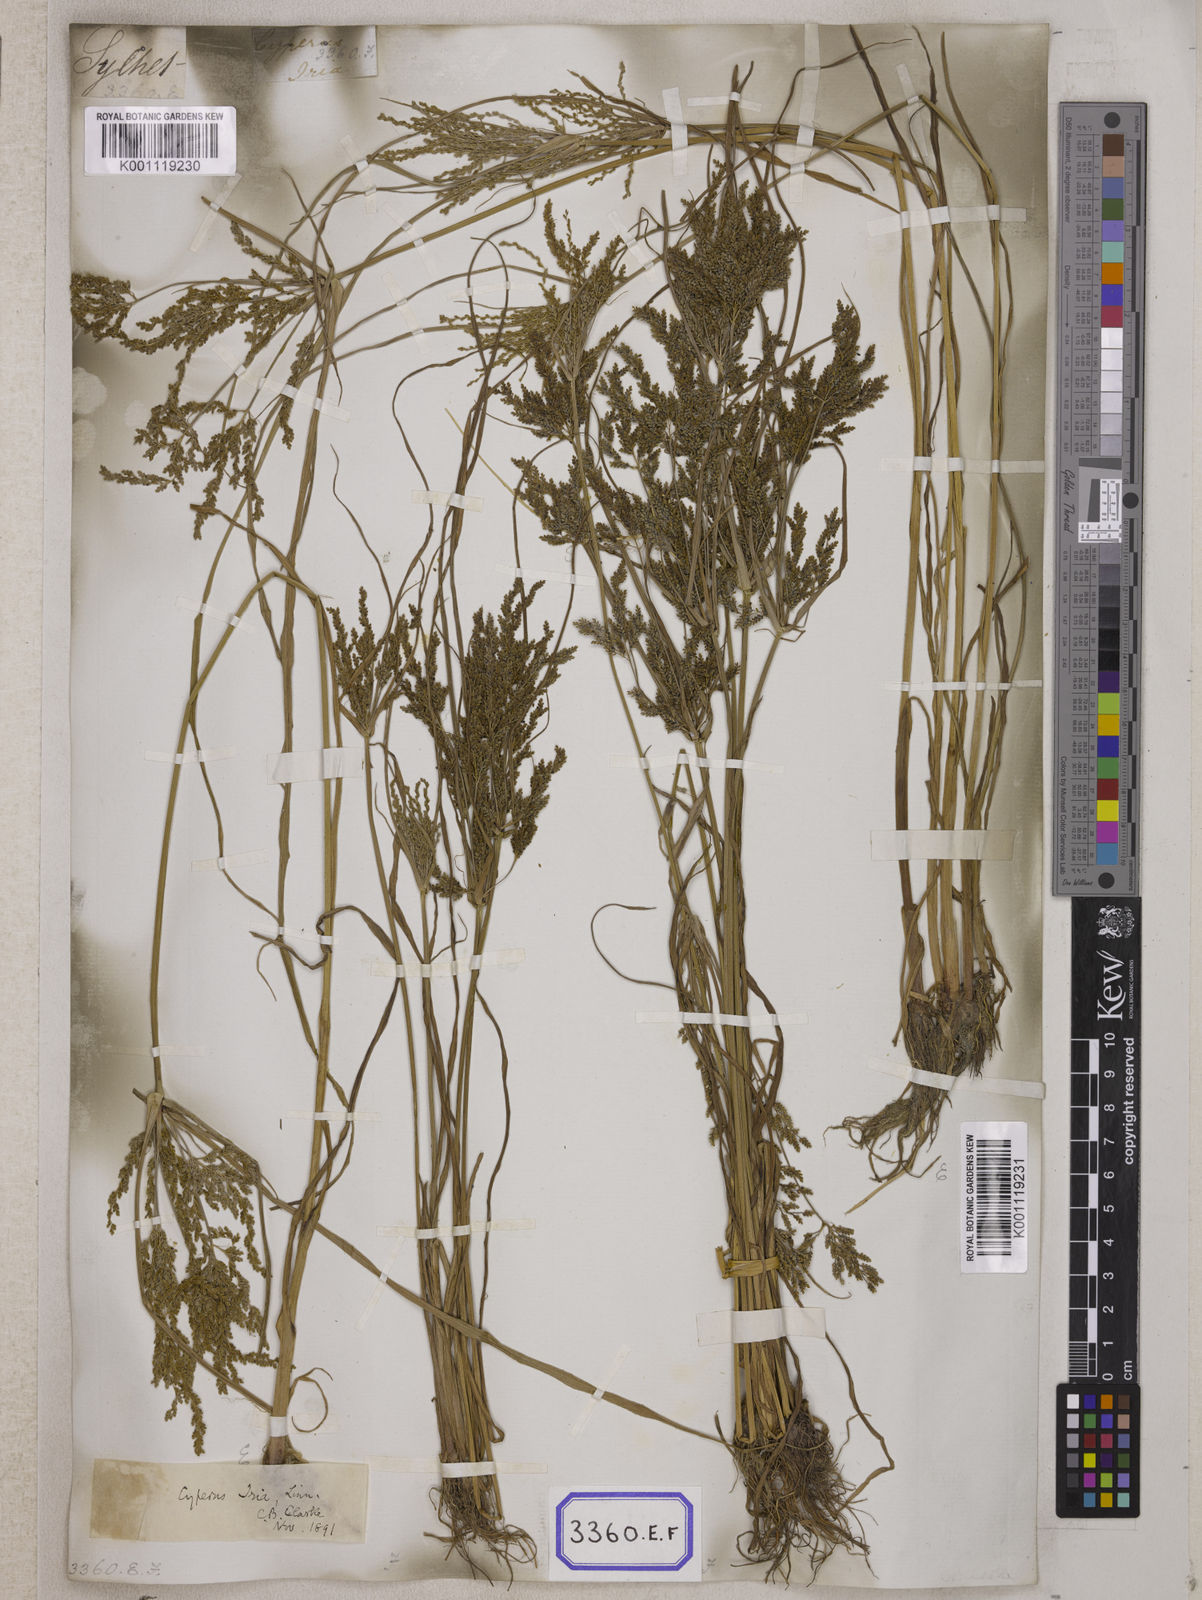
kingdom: Plantae
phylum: Tracheophyta
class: Liliopsida
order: Poales
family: Cyperaceae
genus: Cyperus
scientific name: Cyperus
